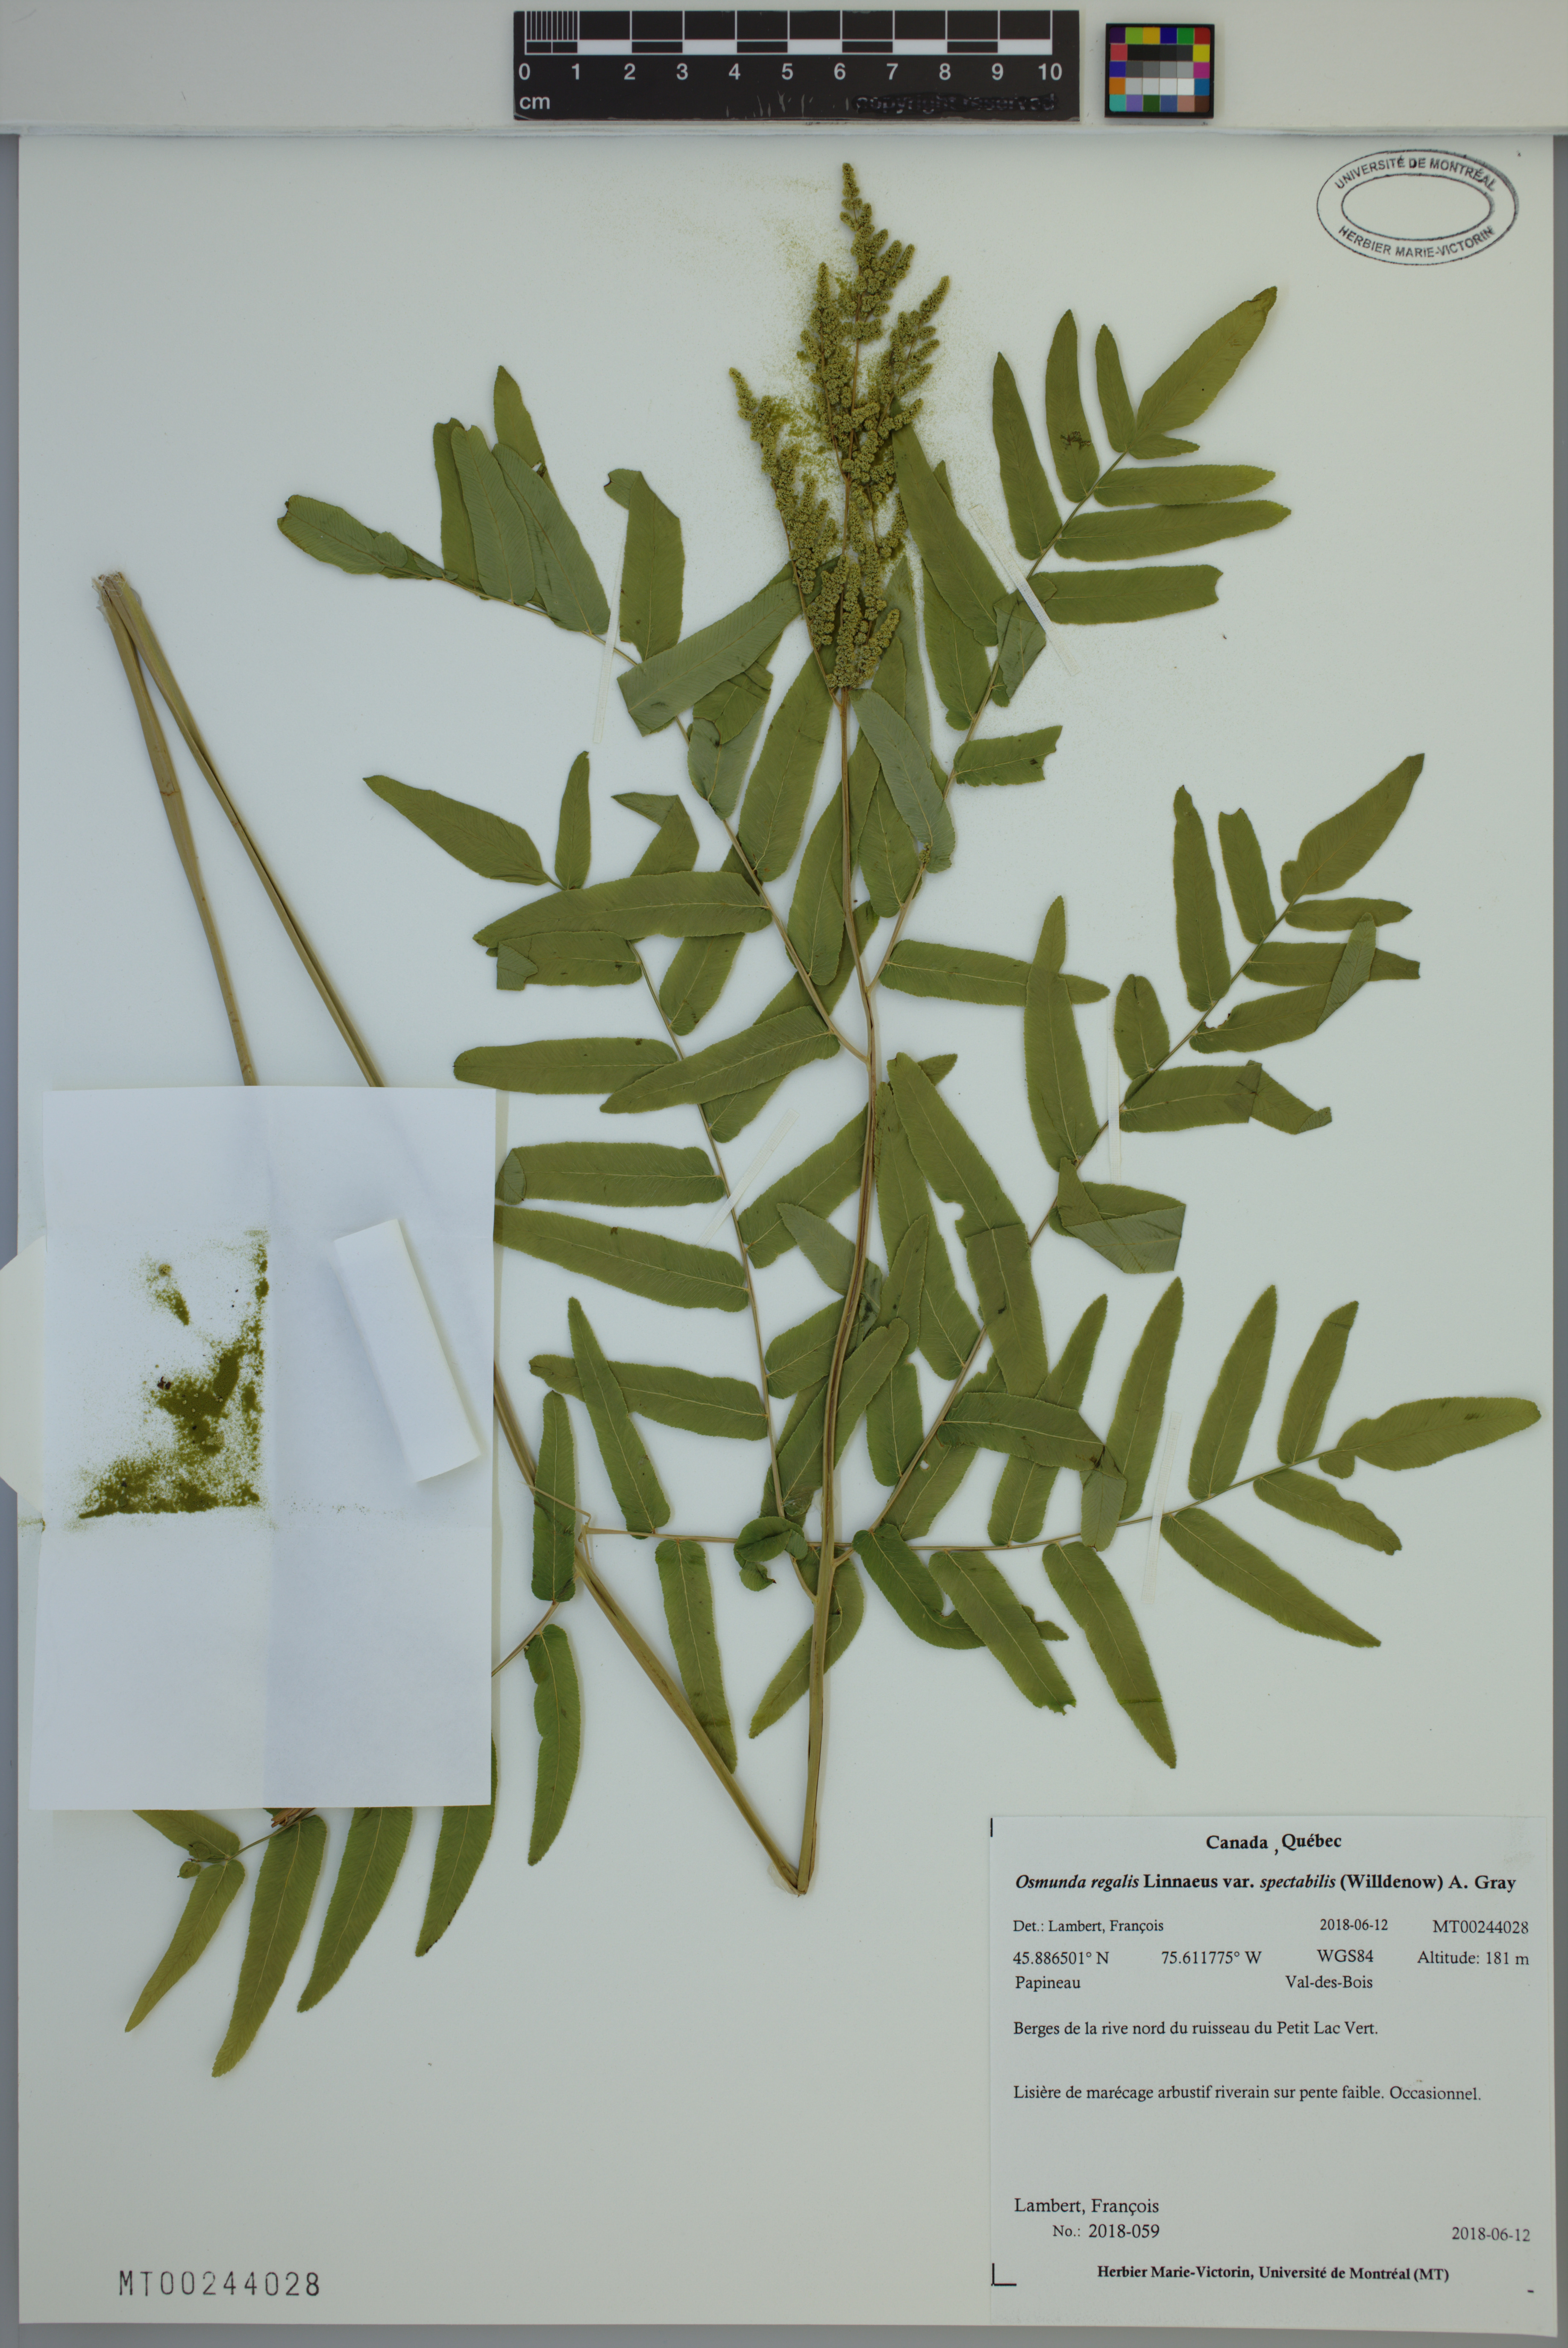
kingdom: Plantae
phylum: Tracheophyta
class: Polypodiopsida
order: Osmundales
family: Osmundaceae
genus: Osmunda
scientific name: Osmunda spectabilis
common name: American royal fern
